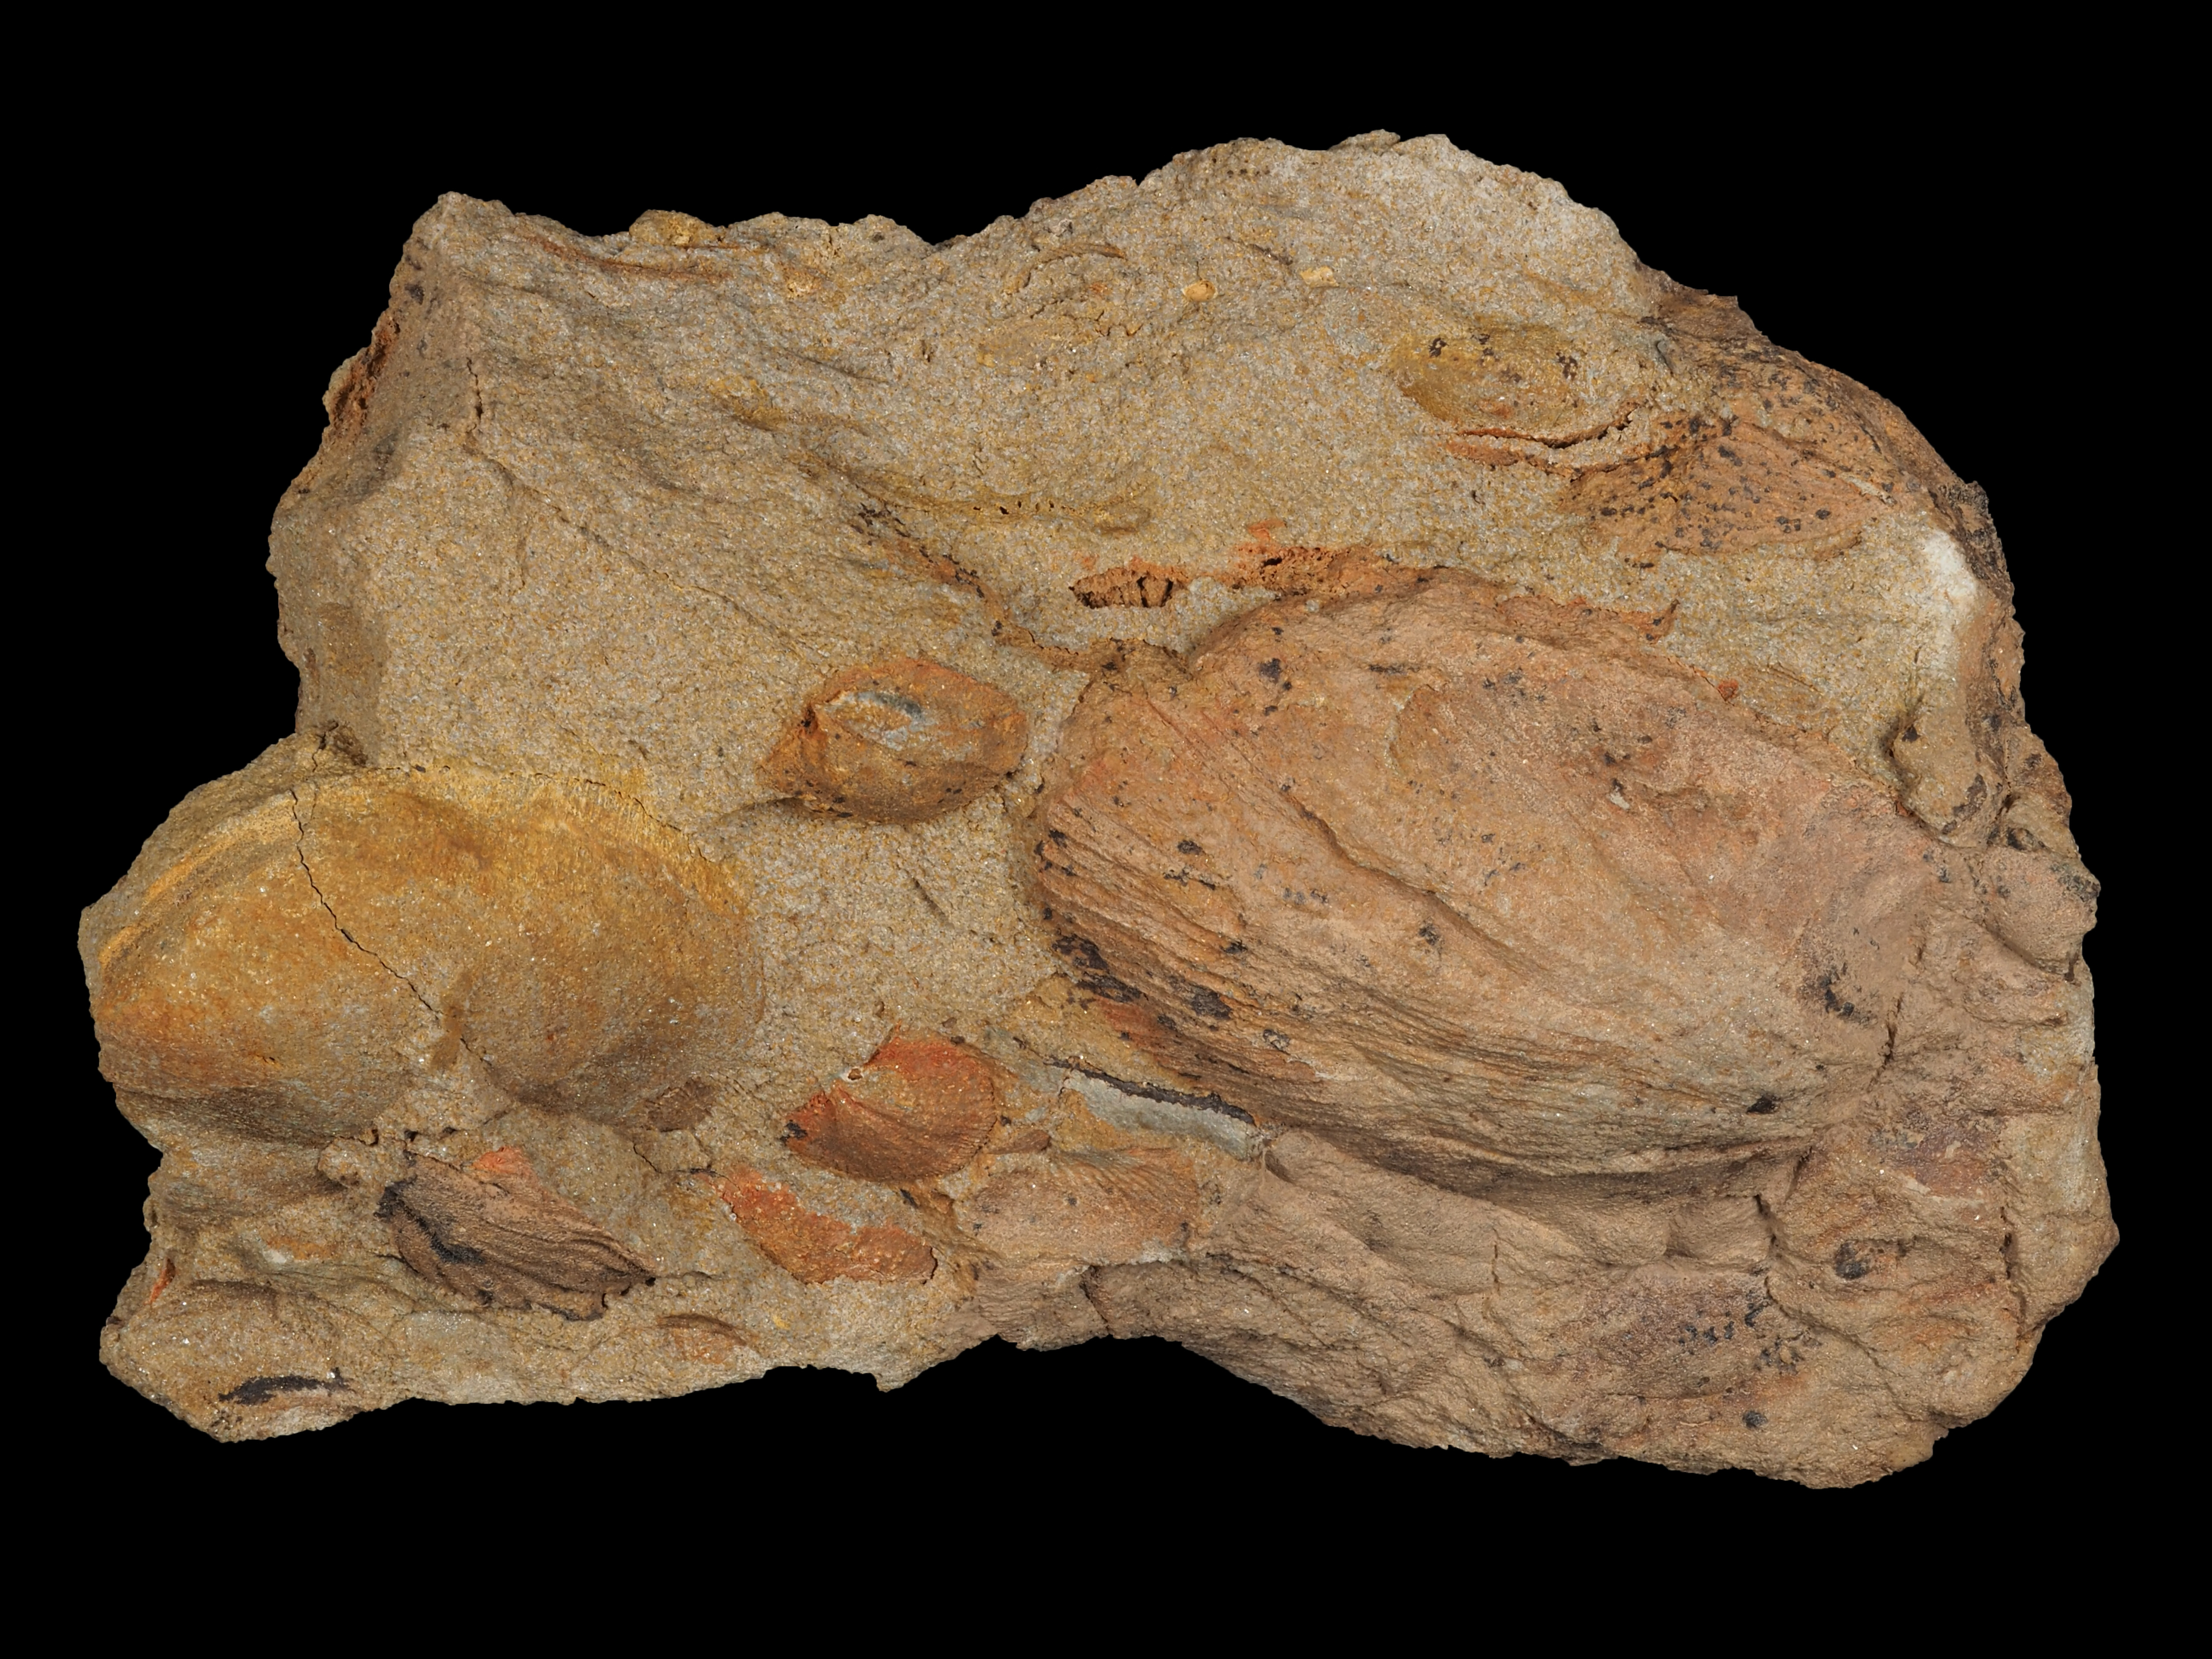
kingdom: Animalia
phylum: Brachiopoda
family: Stropheodontidae
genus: Strophodonta
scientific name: Strophodonta
